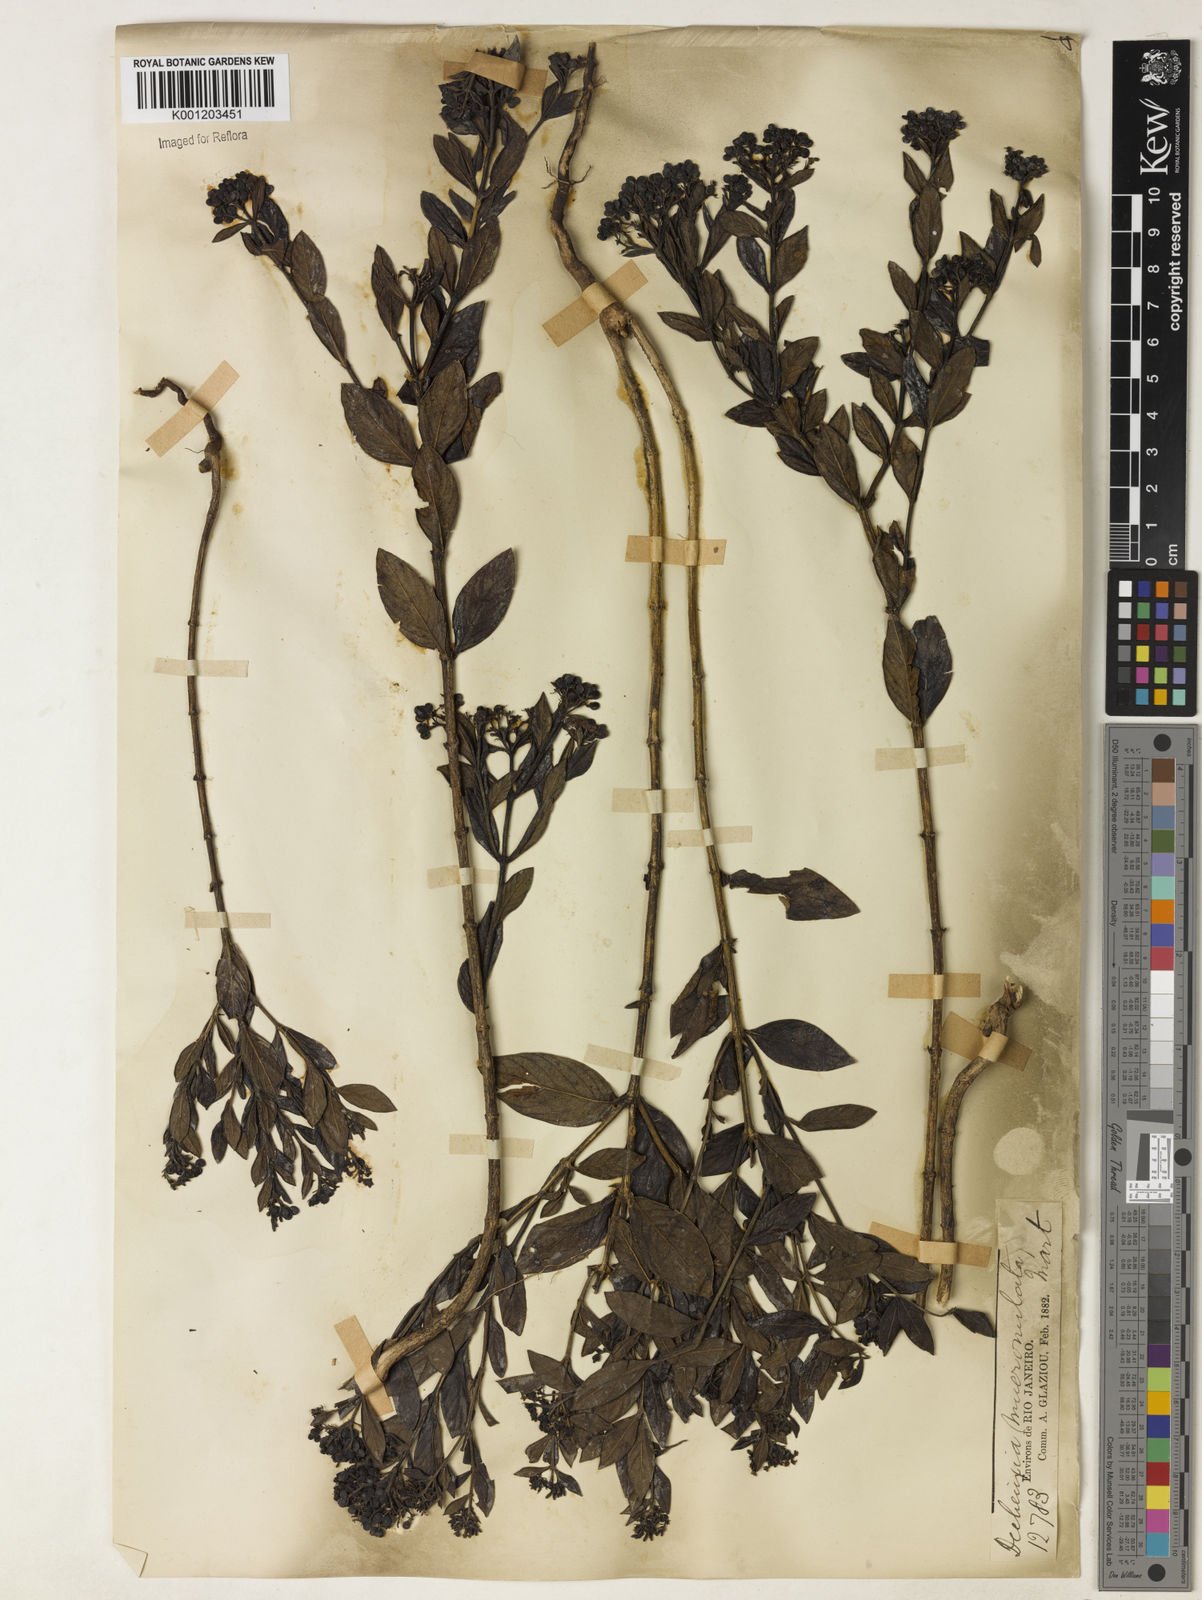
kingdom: Plantae
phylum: Tracheophyta
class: Magnoliopsida
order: Gentianales
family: Rubiaceae
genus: Declieuxia
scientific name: Declieuxia fruticosa
